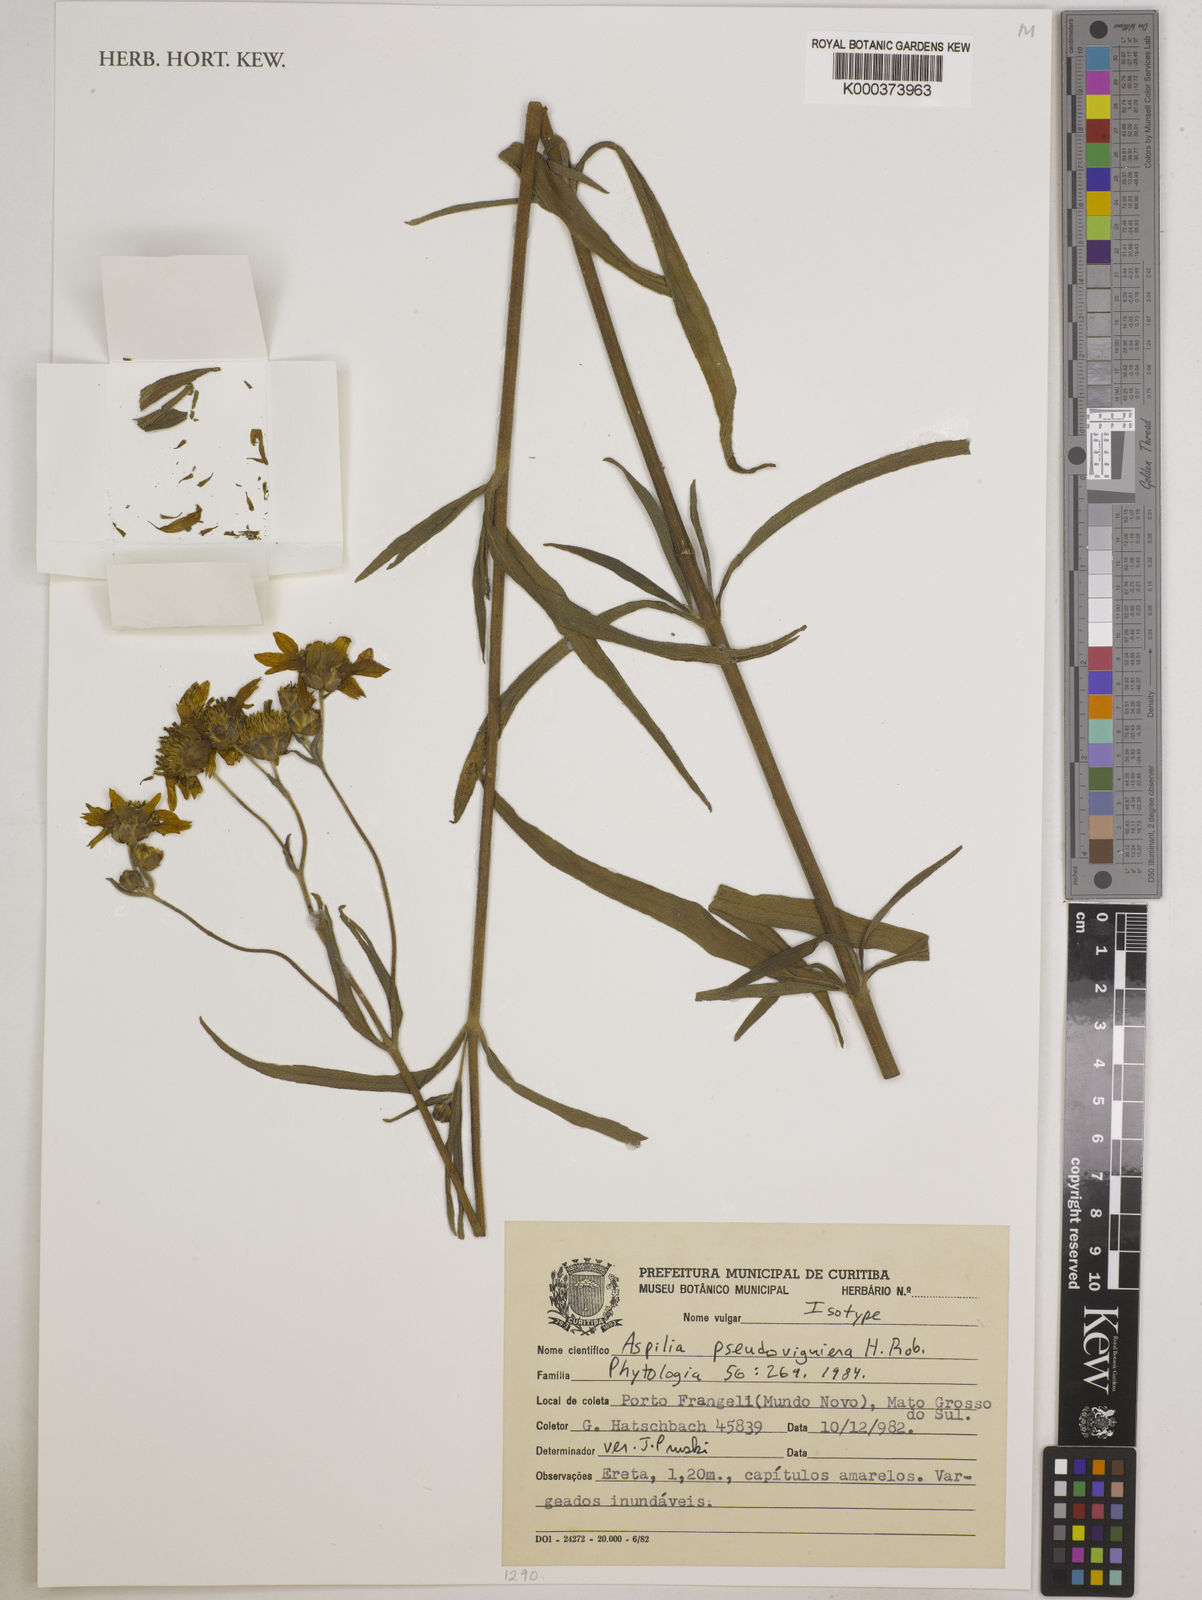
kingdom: Plantae
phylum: Tracheophyta
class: Magnoliopsida
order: Asterales
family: Asteraceae
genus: Wedelia
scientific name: Wedelia floribunda
